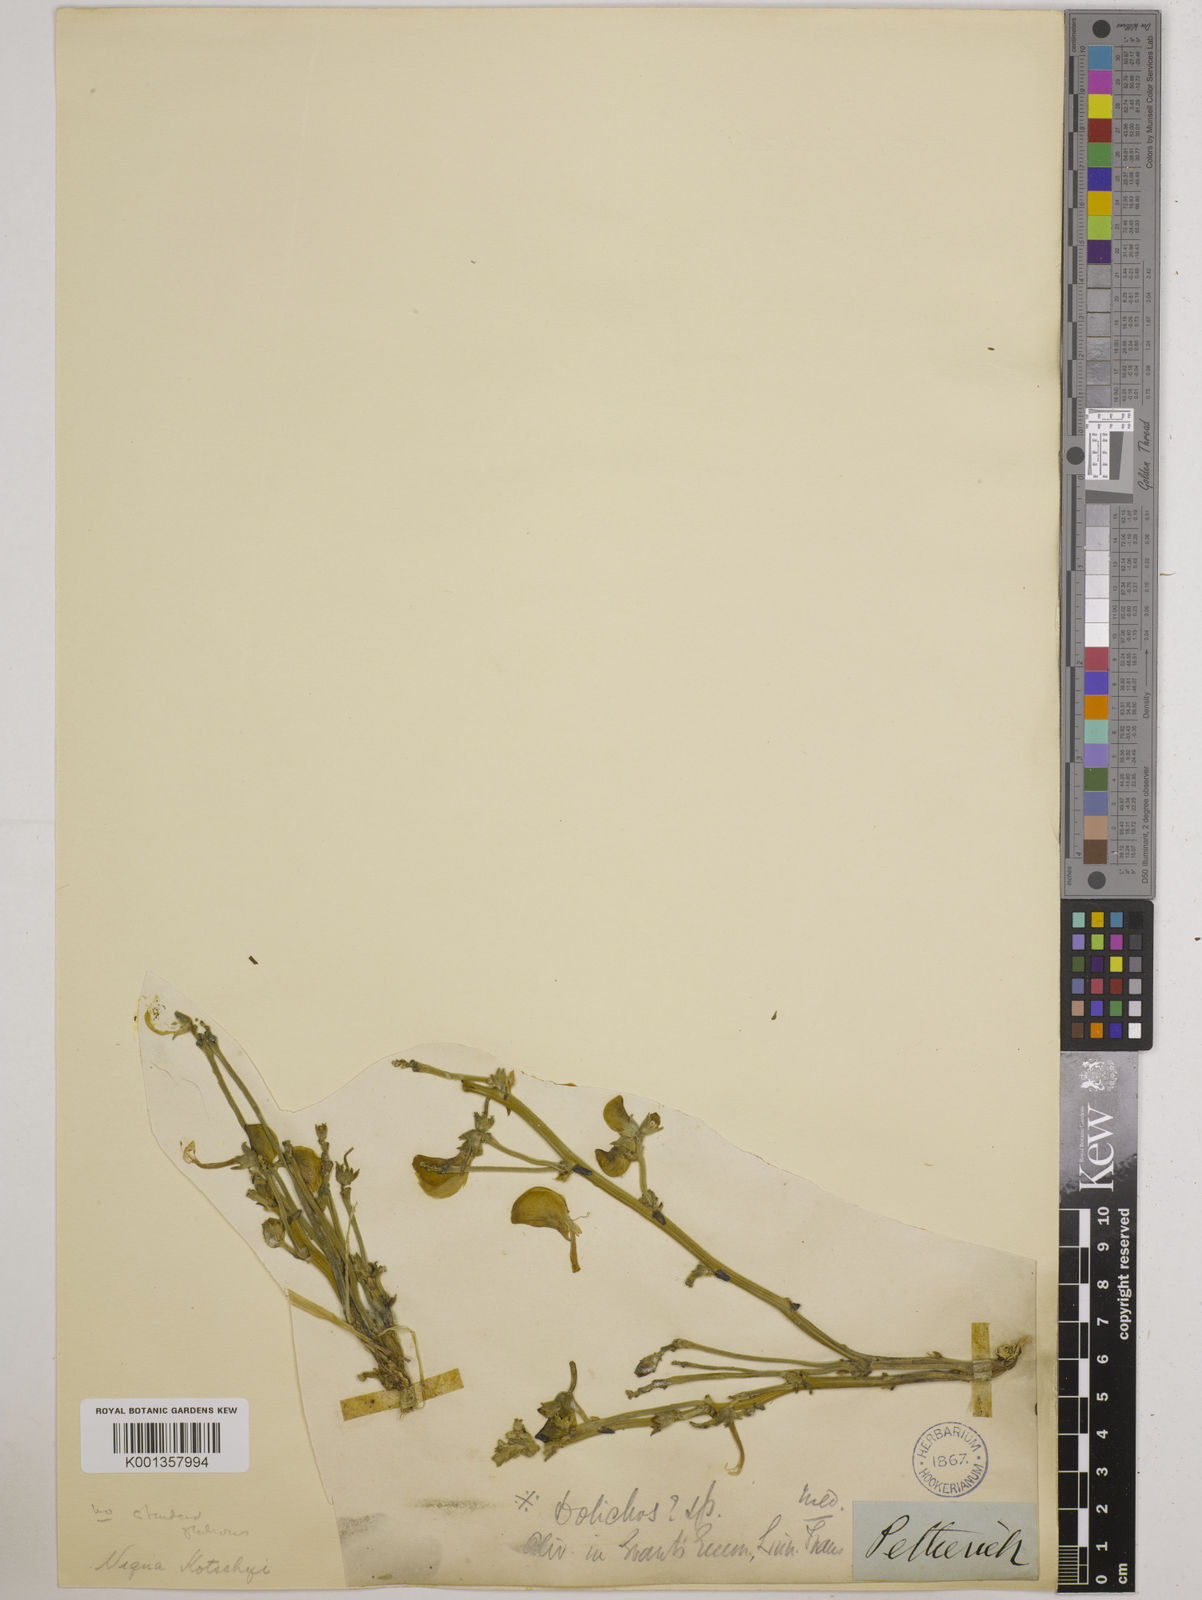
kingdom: Plantae
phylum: Tracheophyta
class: Magnoliopsida
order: Fabales
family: Fabaceae
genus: Vigna
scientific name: Vigna frutescens
